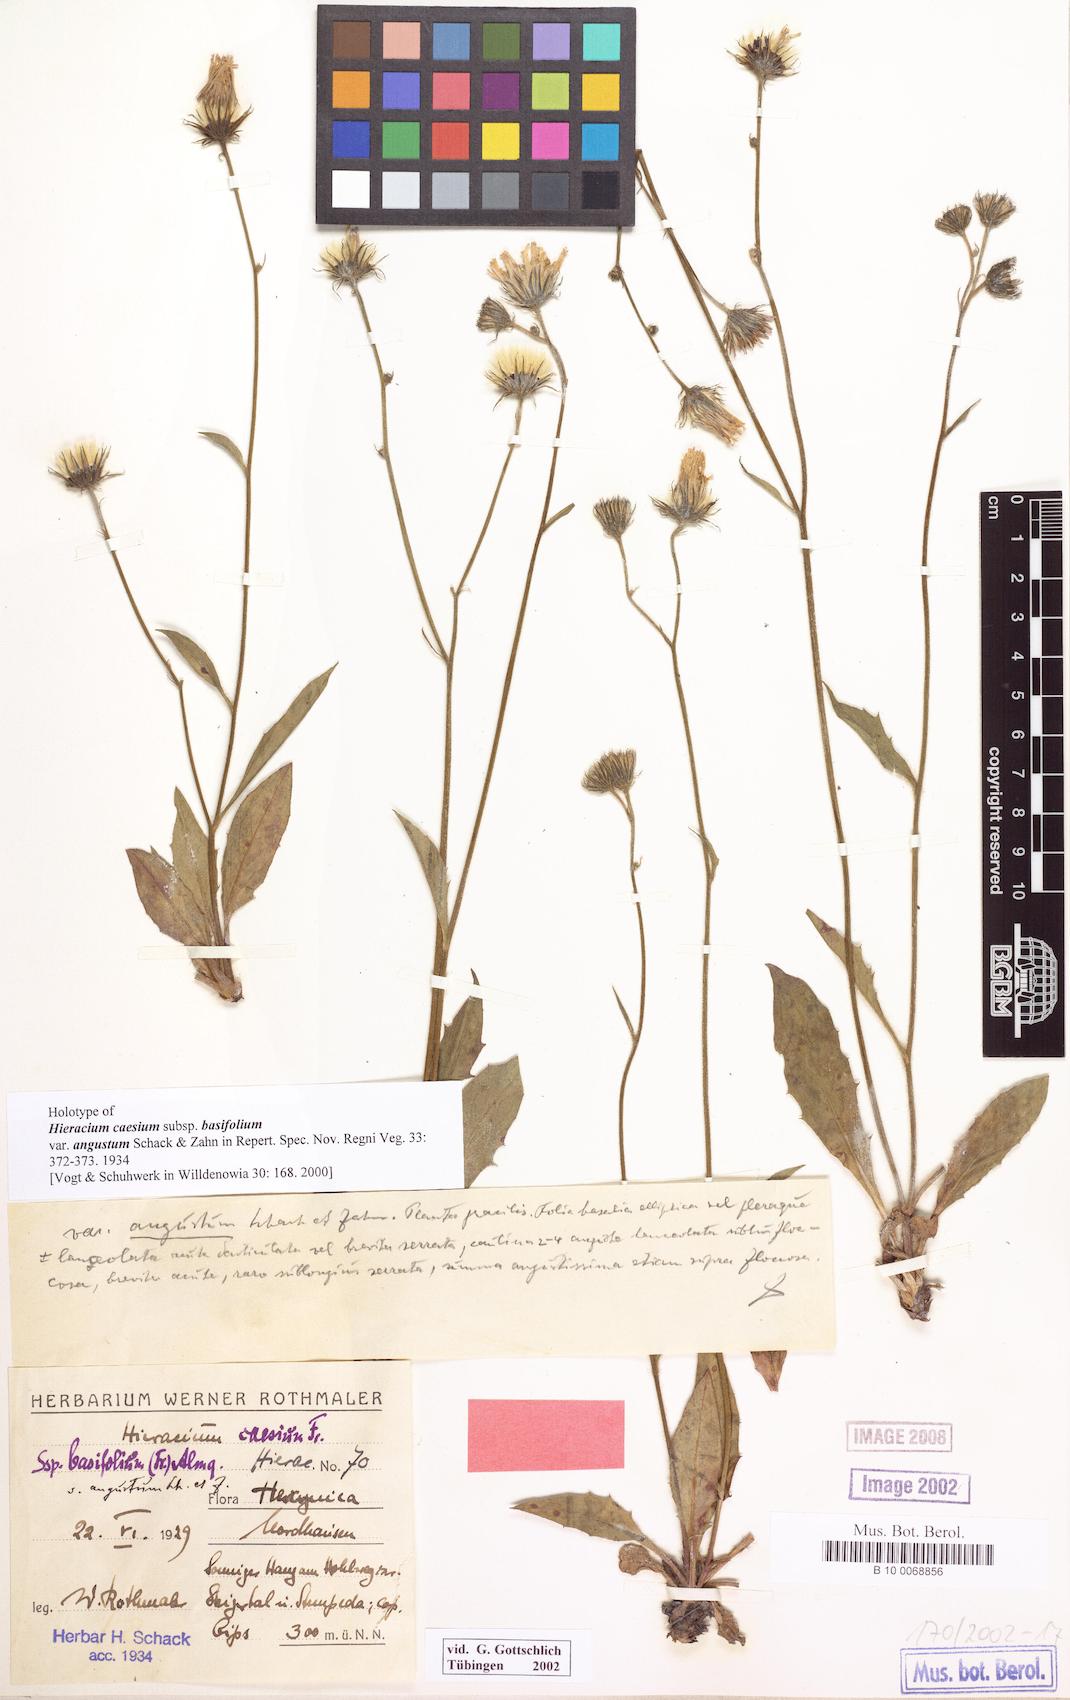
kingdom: Plantae
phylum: Tracheophyta
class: Magnoliopsida
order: Asterales
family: Asteraceae
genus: Hieracium
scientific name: Hieracium angustatum
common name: Lesser-leaved hawkweed
